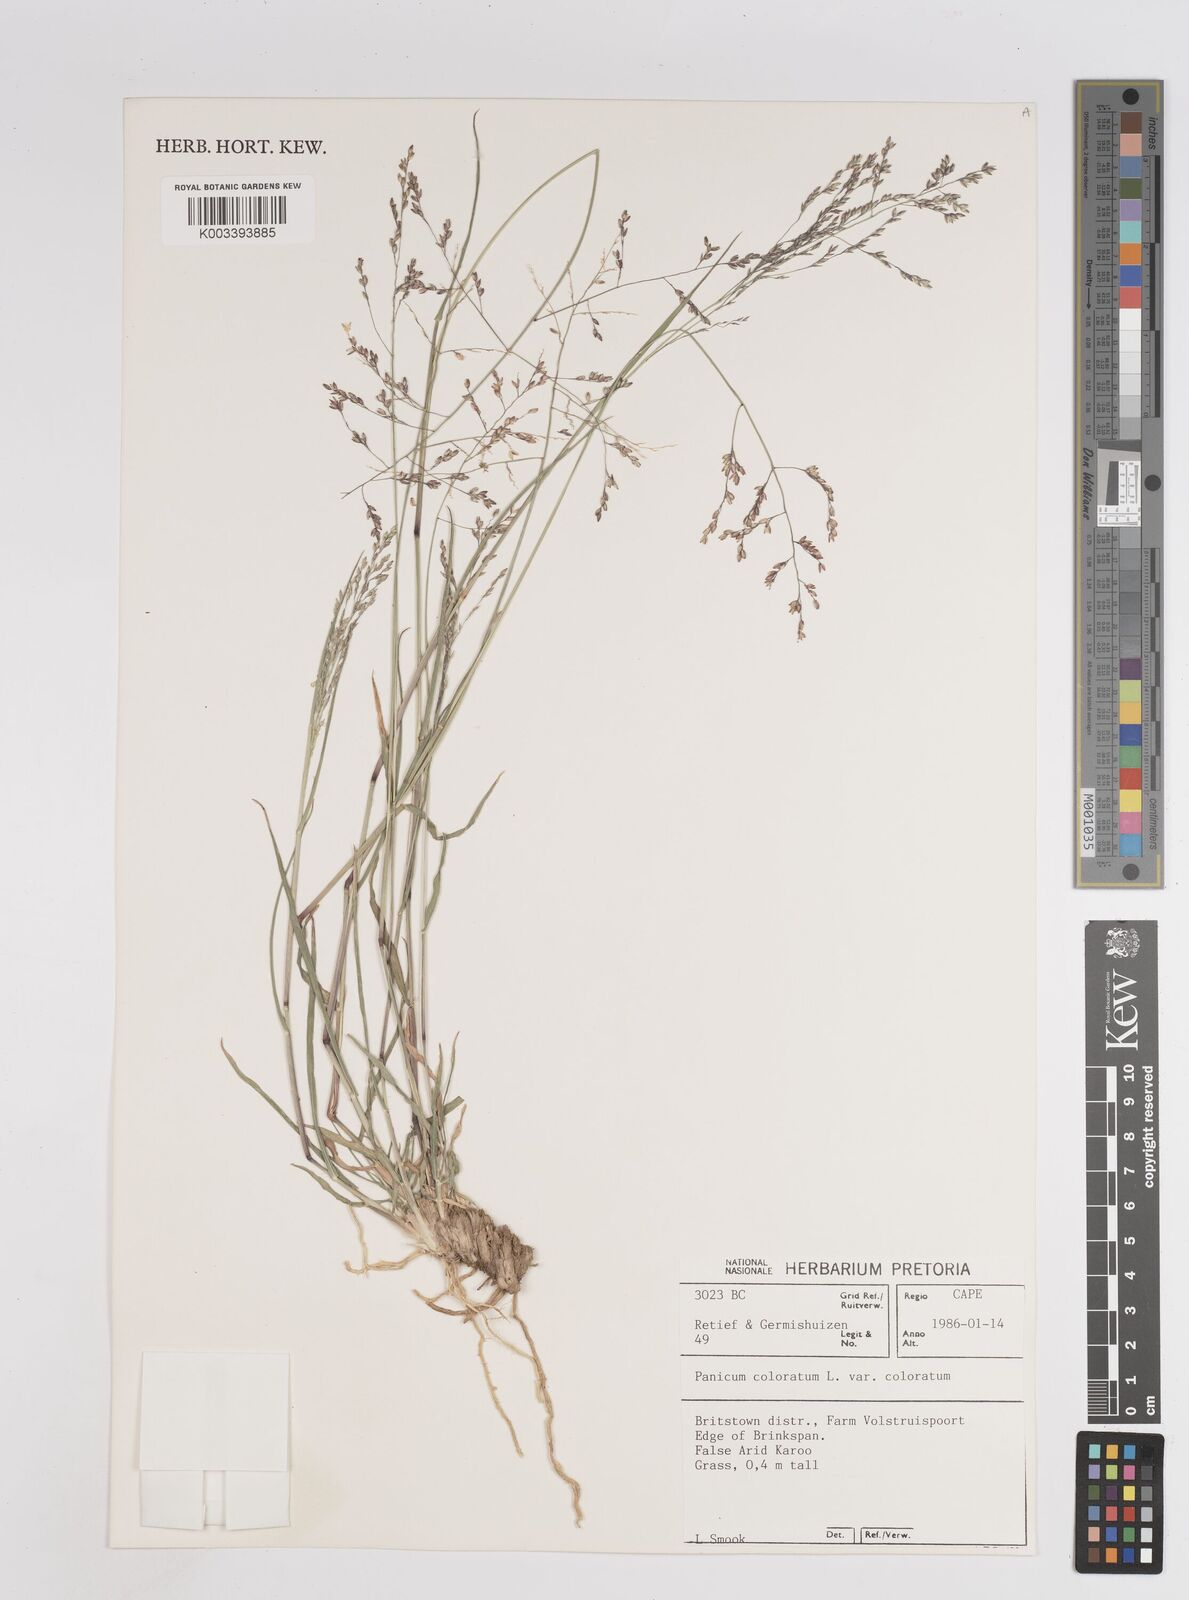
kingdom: Plantae
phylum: Tracheophyta
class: Liliopsida
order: Poales
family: Poaceae
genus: Panicum
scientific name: Panicum
